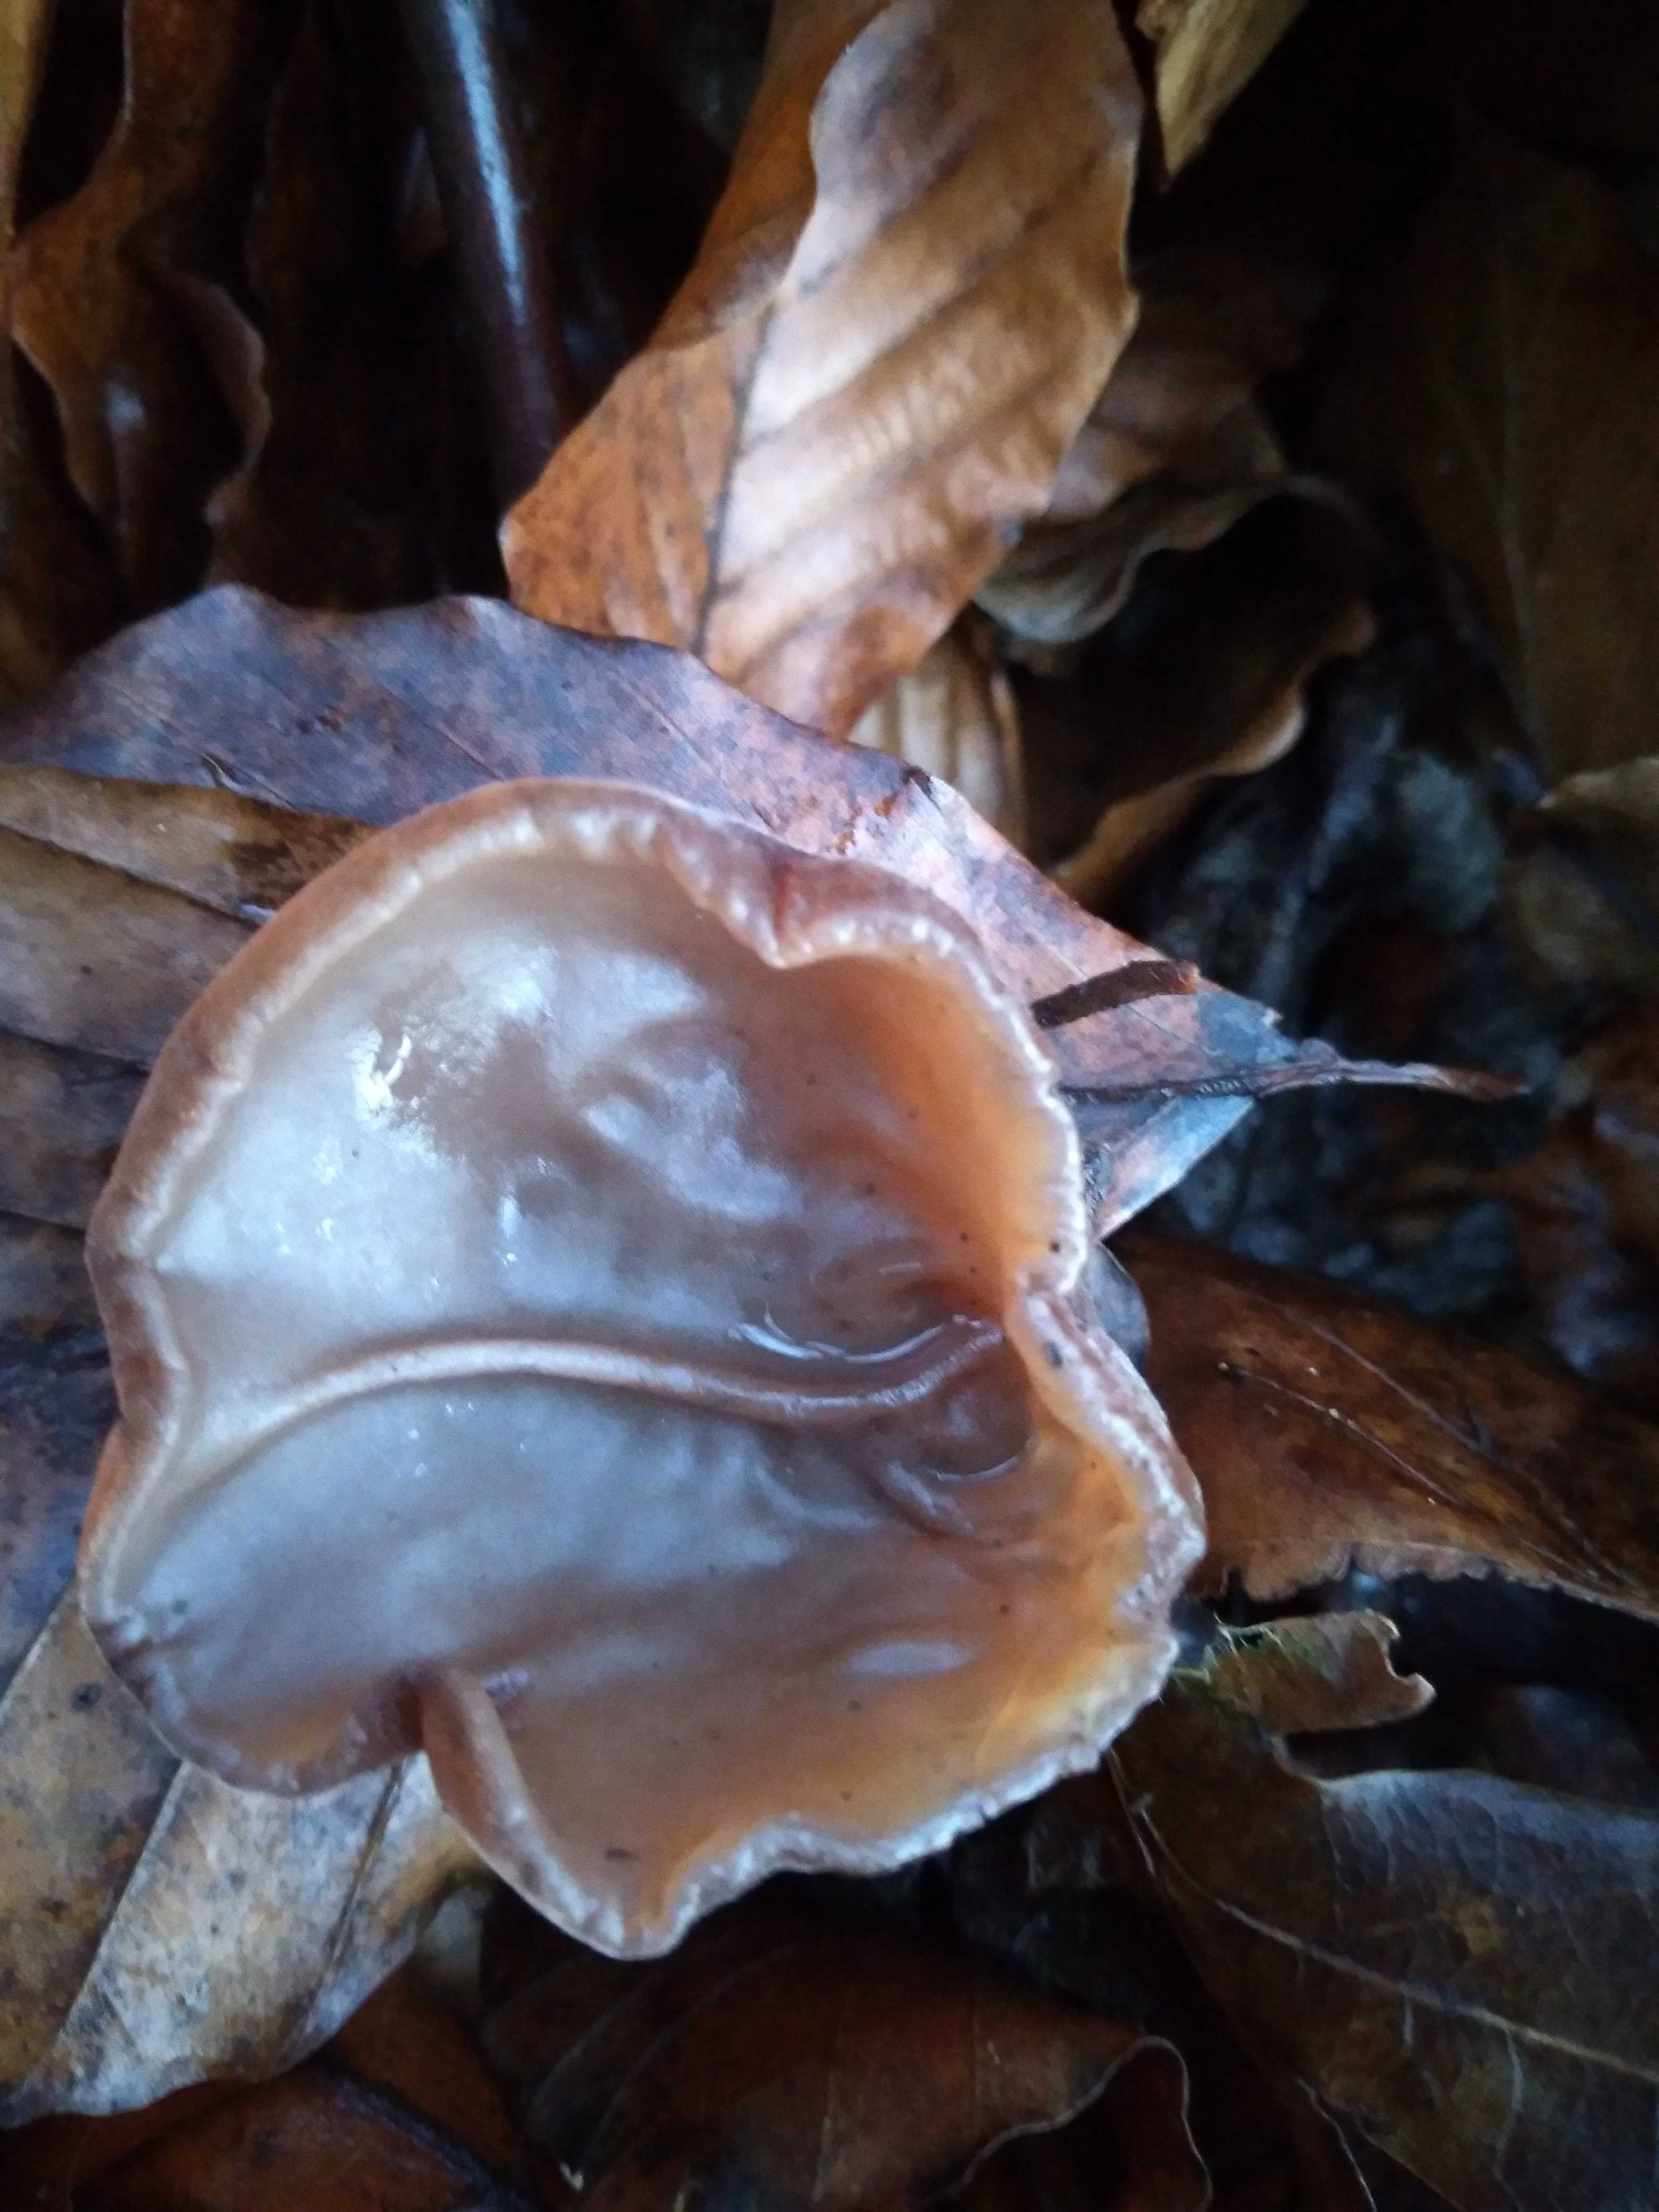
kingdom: Fungi
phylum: Basidiomycota
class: Agaricomycetes
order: Auriculariales
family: Auriculariaceae
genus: Auricularia
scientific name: Auricularia auricula-judae
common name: almindelig judasøre
